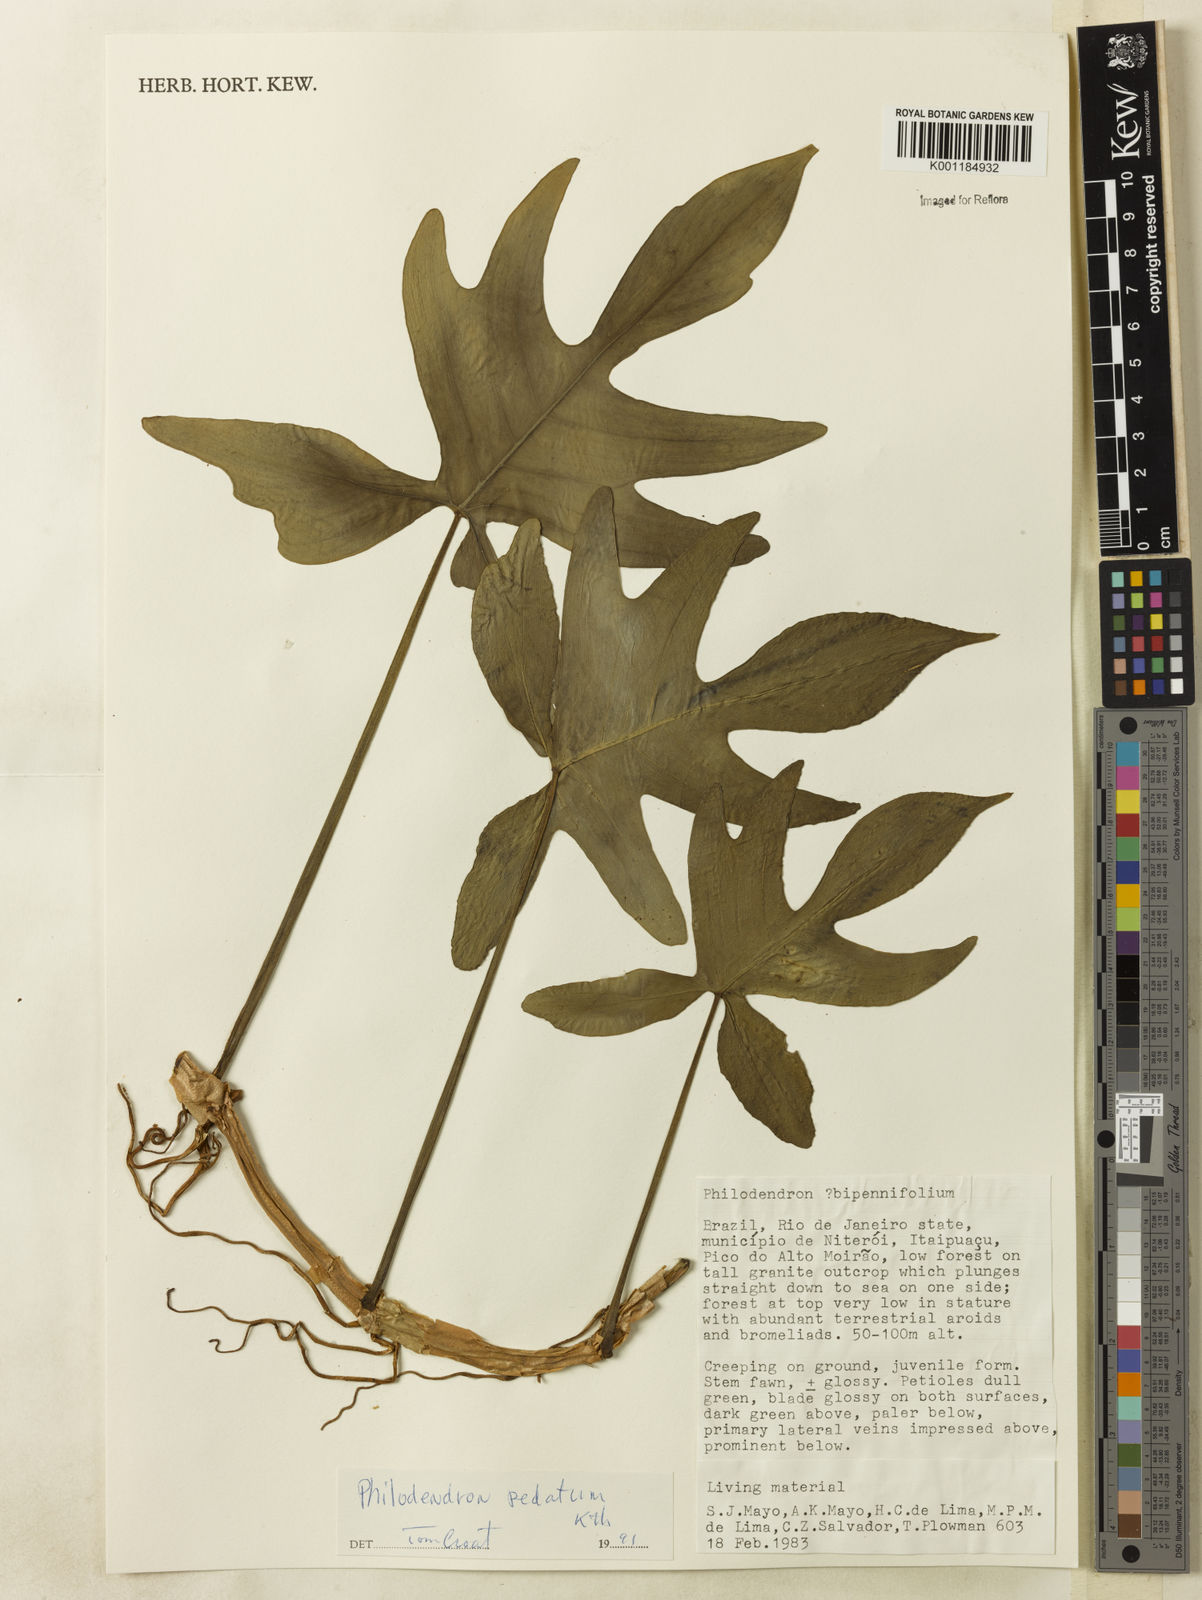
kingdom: Plantae
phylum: Tracheophyta
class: Liliopsida
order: Alismatales
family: Araceae
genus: Philodendron
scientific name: Philodendron pedatum
